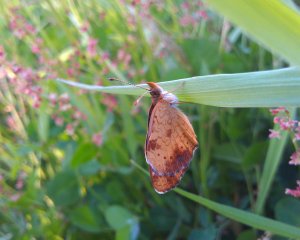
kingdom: Animalia
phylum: Arthropoda
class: Insecta
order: Lepidoptera
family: Nymphalidae
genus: Phyciodes
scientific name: Phyciodes tharos
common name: Northern Crescent
